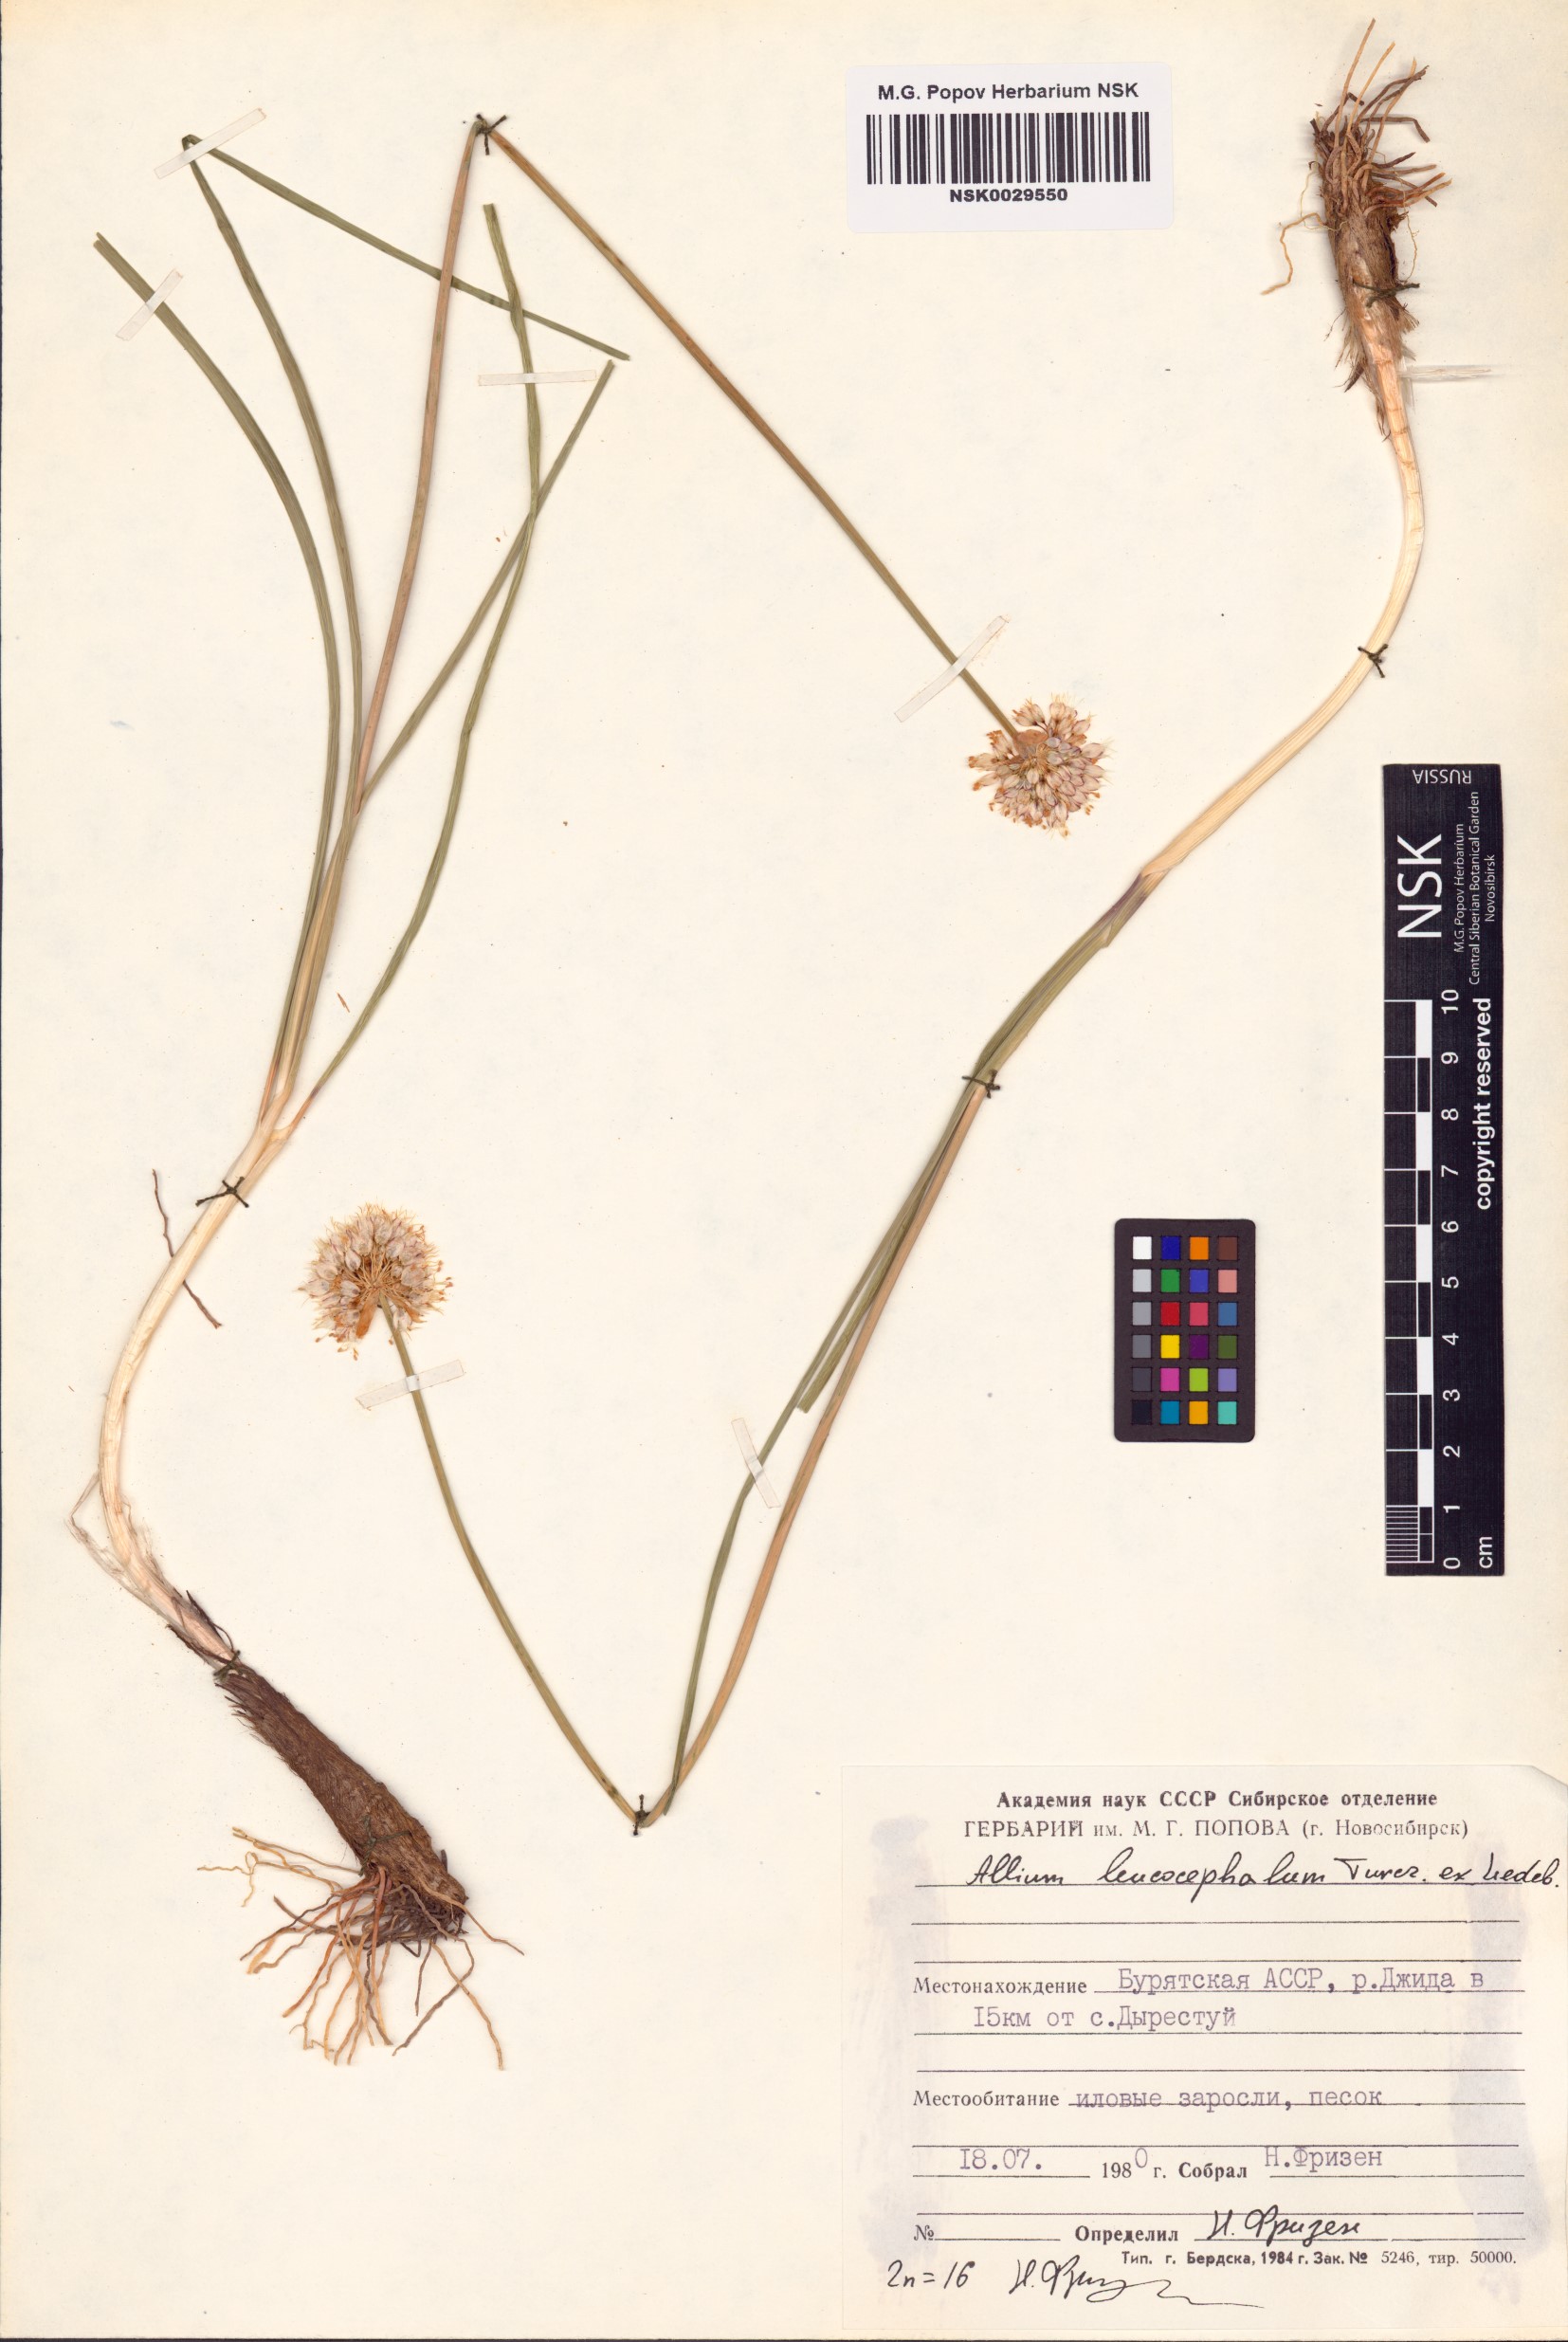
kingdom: Plantae
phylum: Tracheophyta
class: Liliopsida
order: Asparagales
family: Amaryllidaceae
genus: Allium
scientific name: Allium leucocephalum
